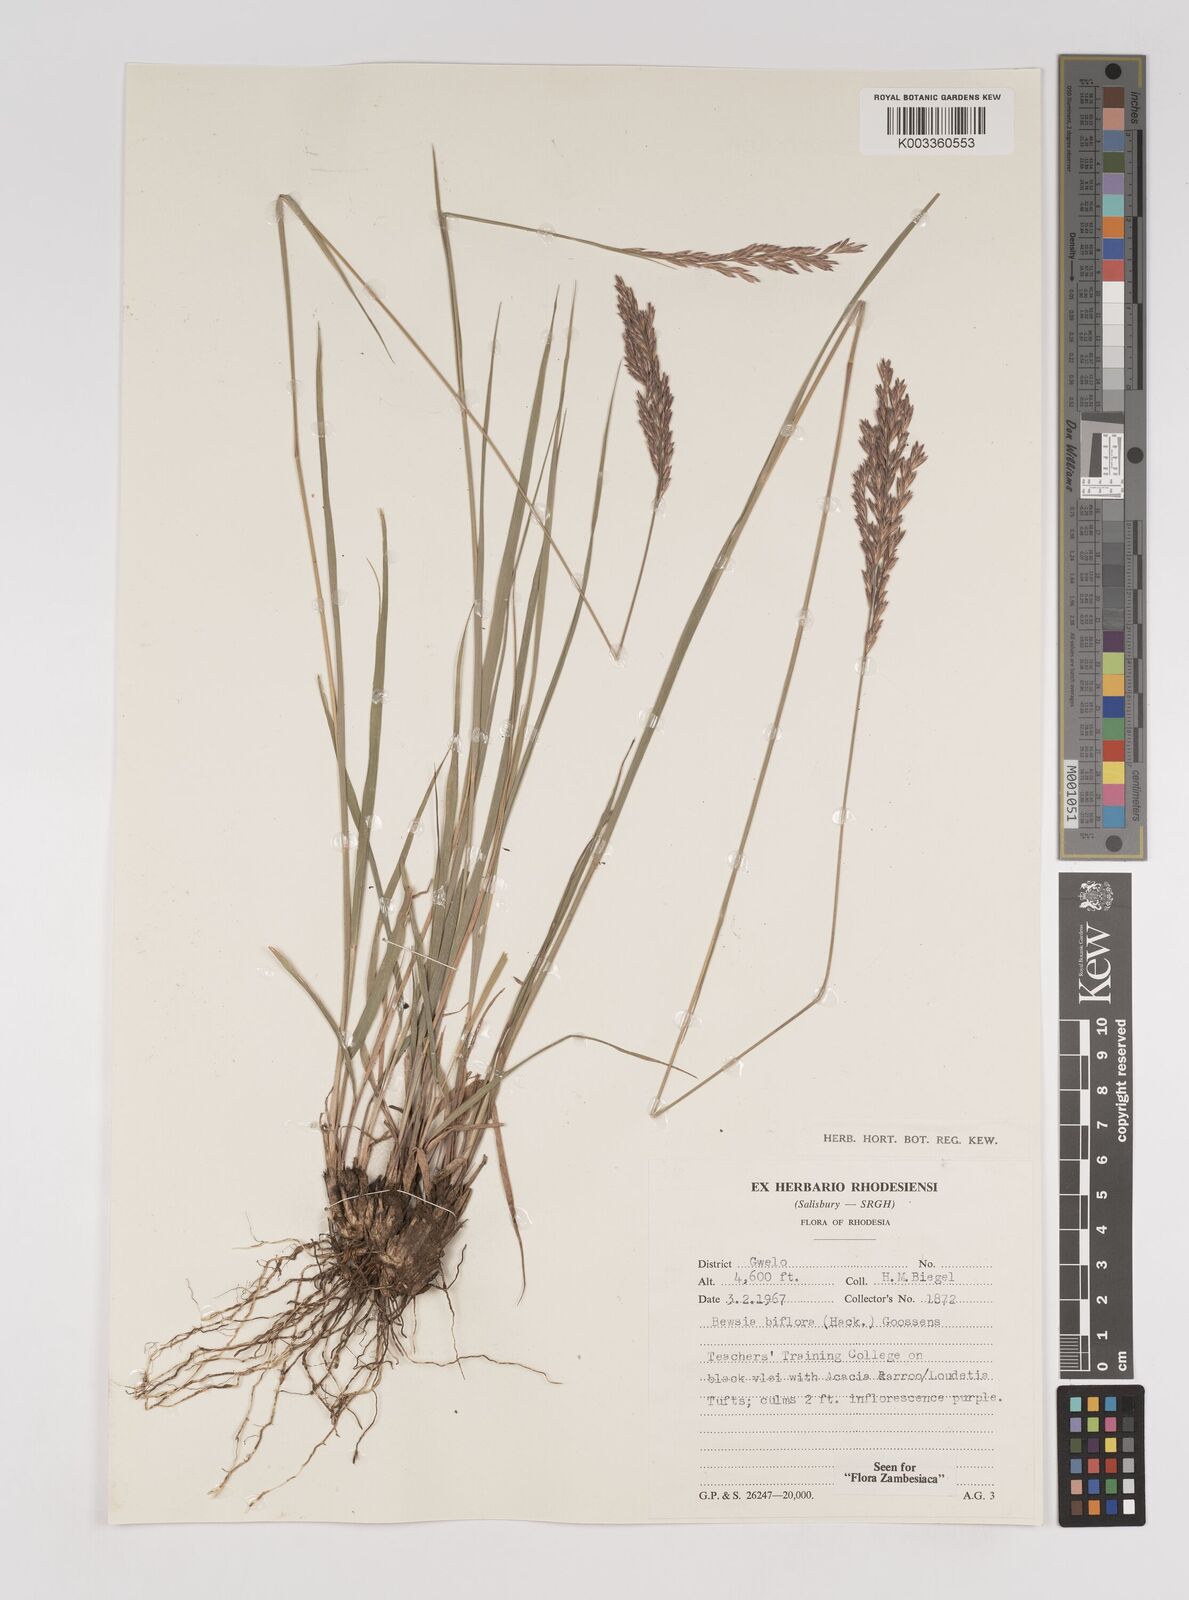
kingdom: Plantae
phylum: Tracheophyta
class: Liliopsida
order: Poales
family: Poaceae
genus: Bewsia
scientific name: Bewsia biflora
